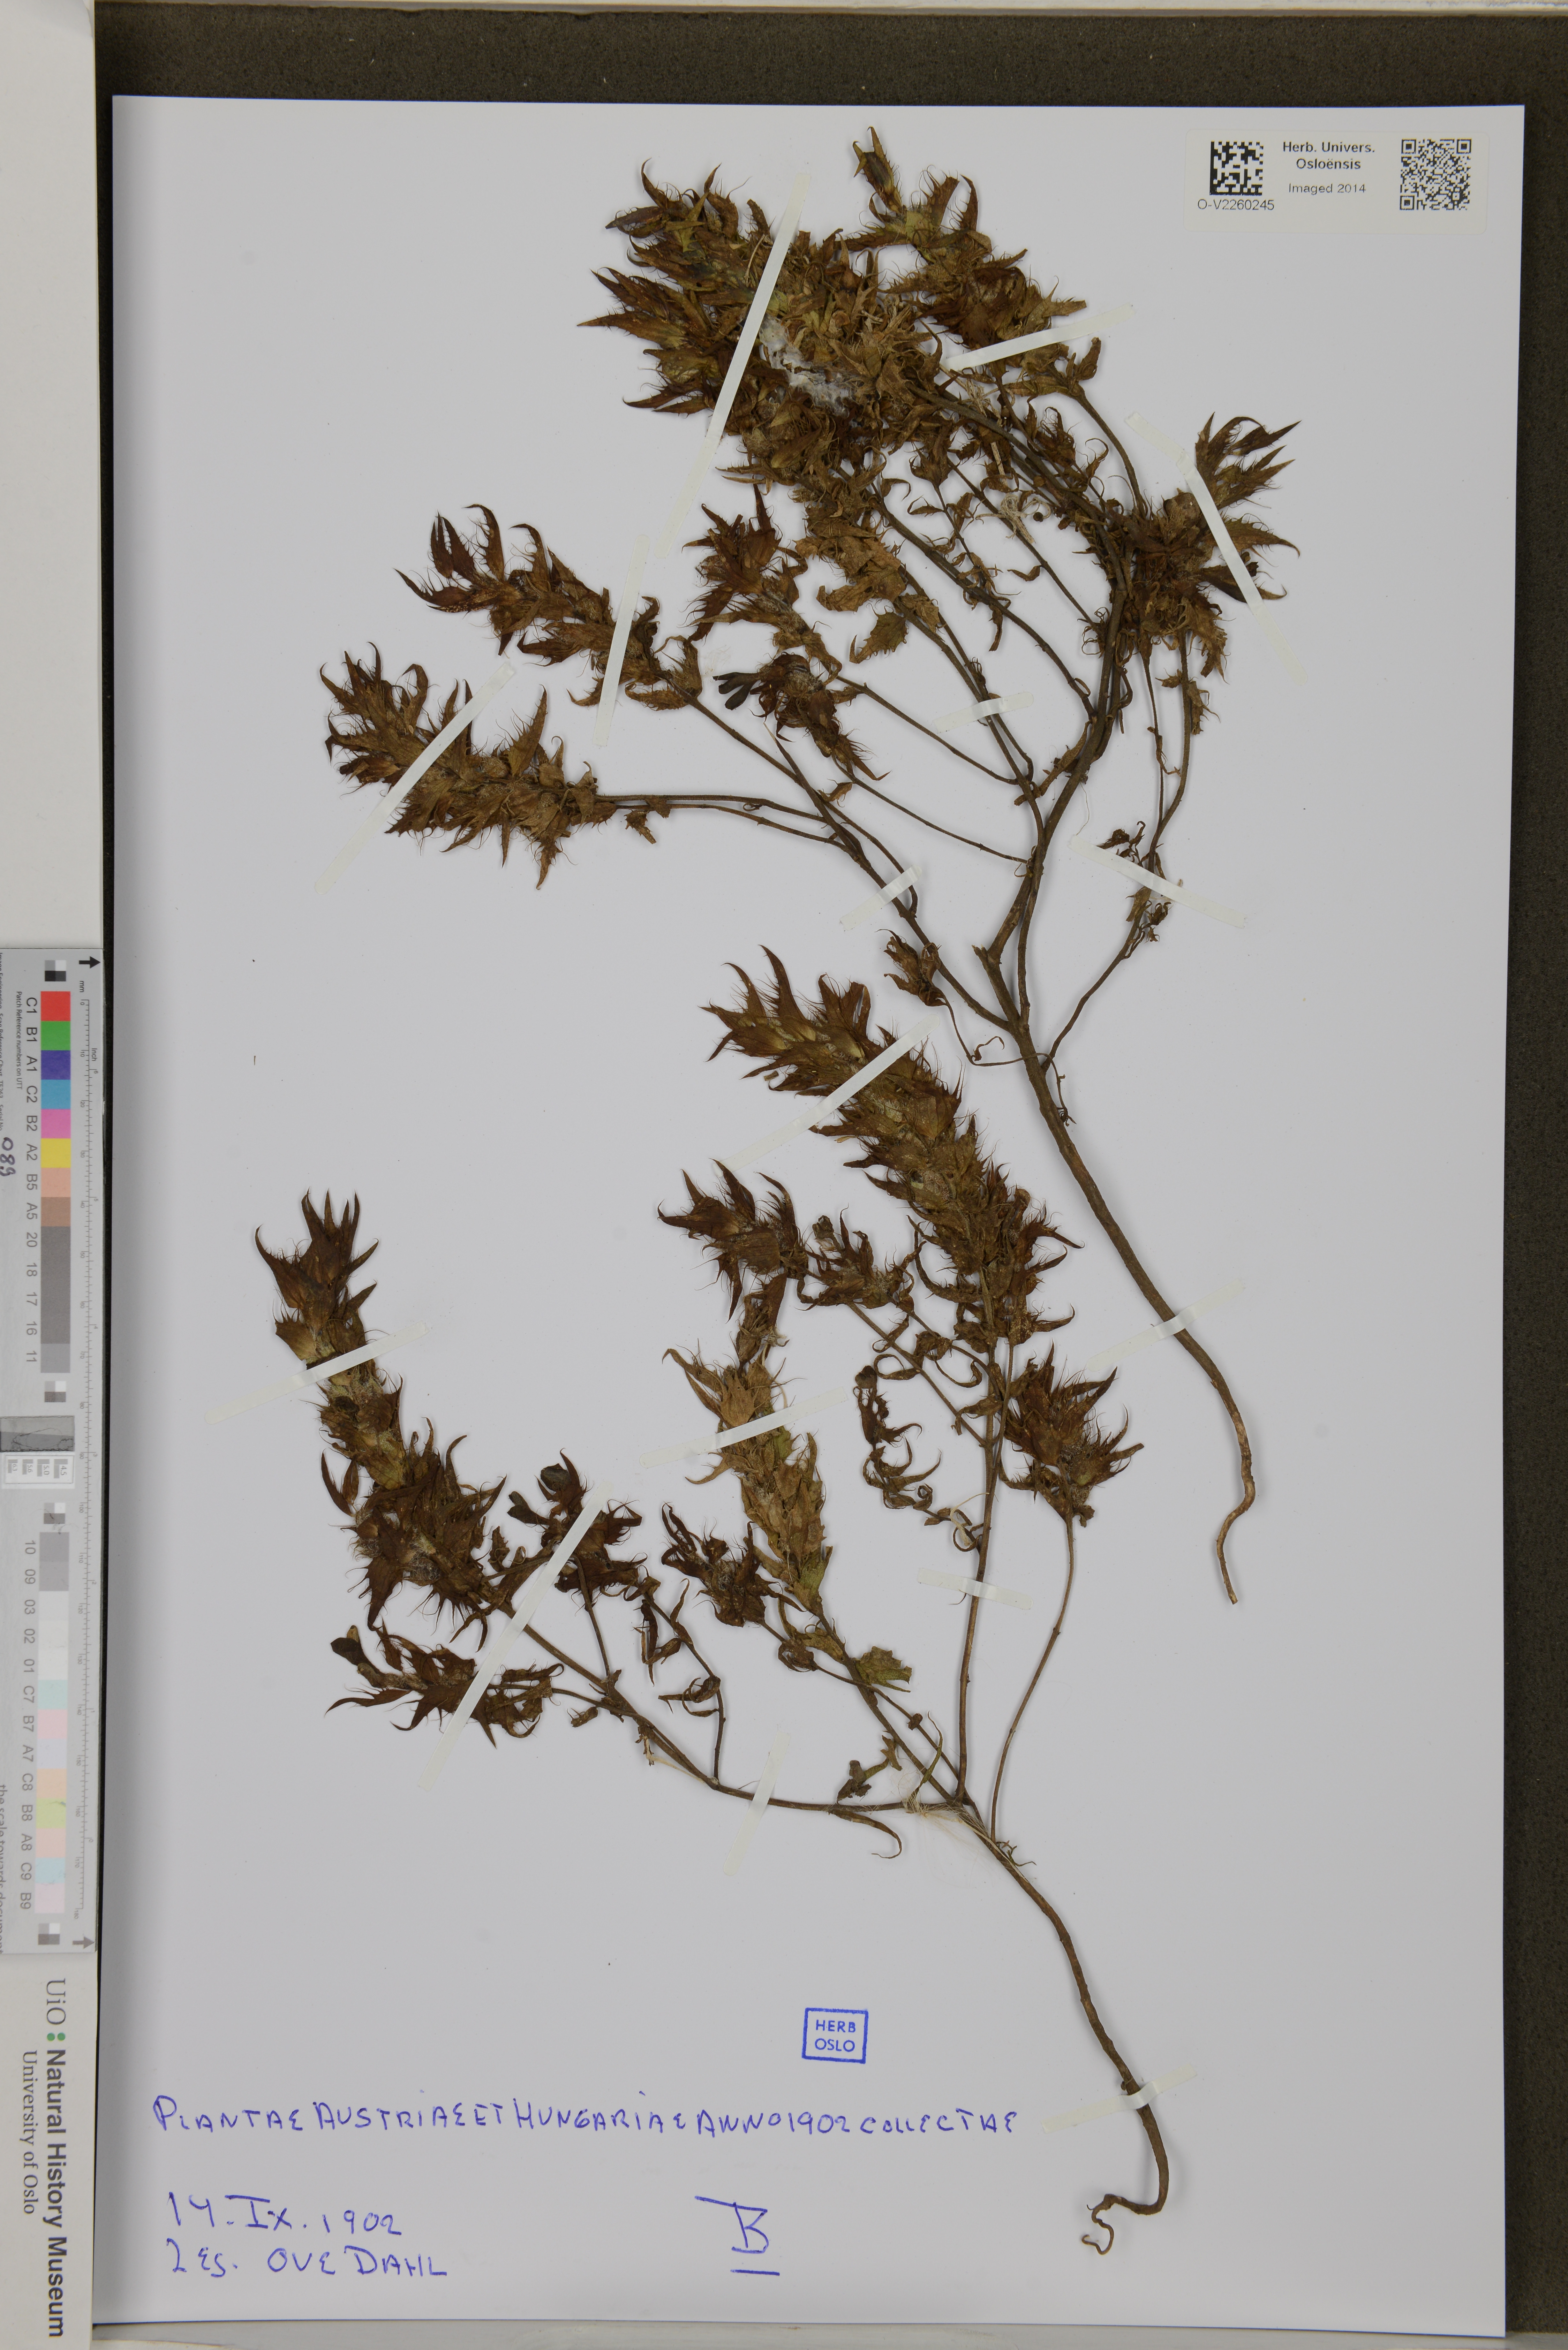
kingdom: Plantae
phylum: Tracheophyta
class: Magnoliopsida
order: Lamiales
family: Orobanchaceae
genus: Rhinanthus
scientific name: Rhinanthus
